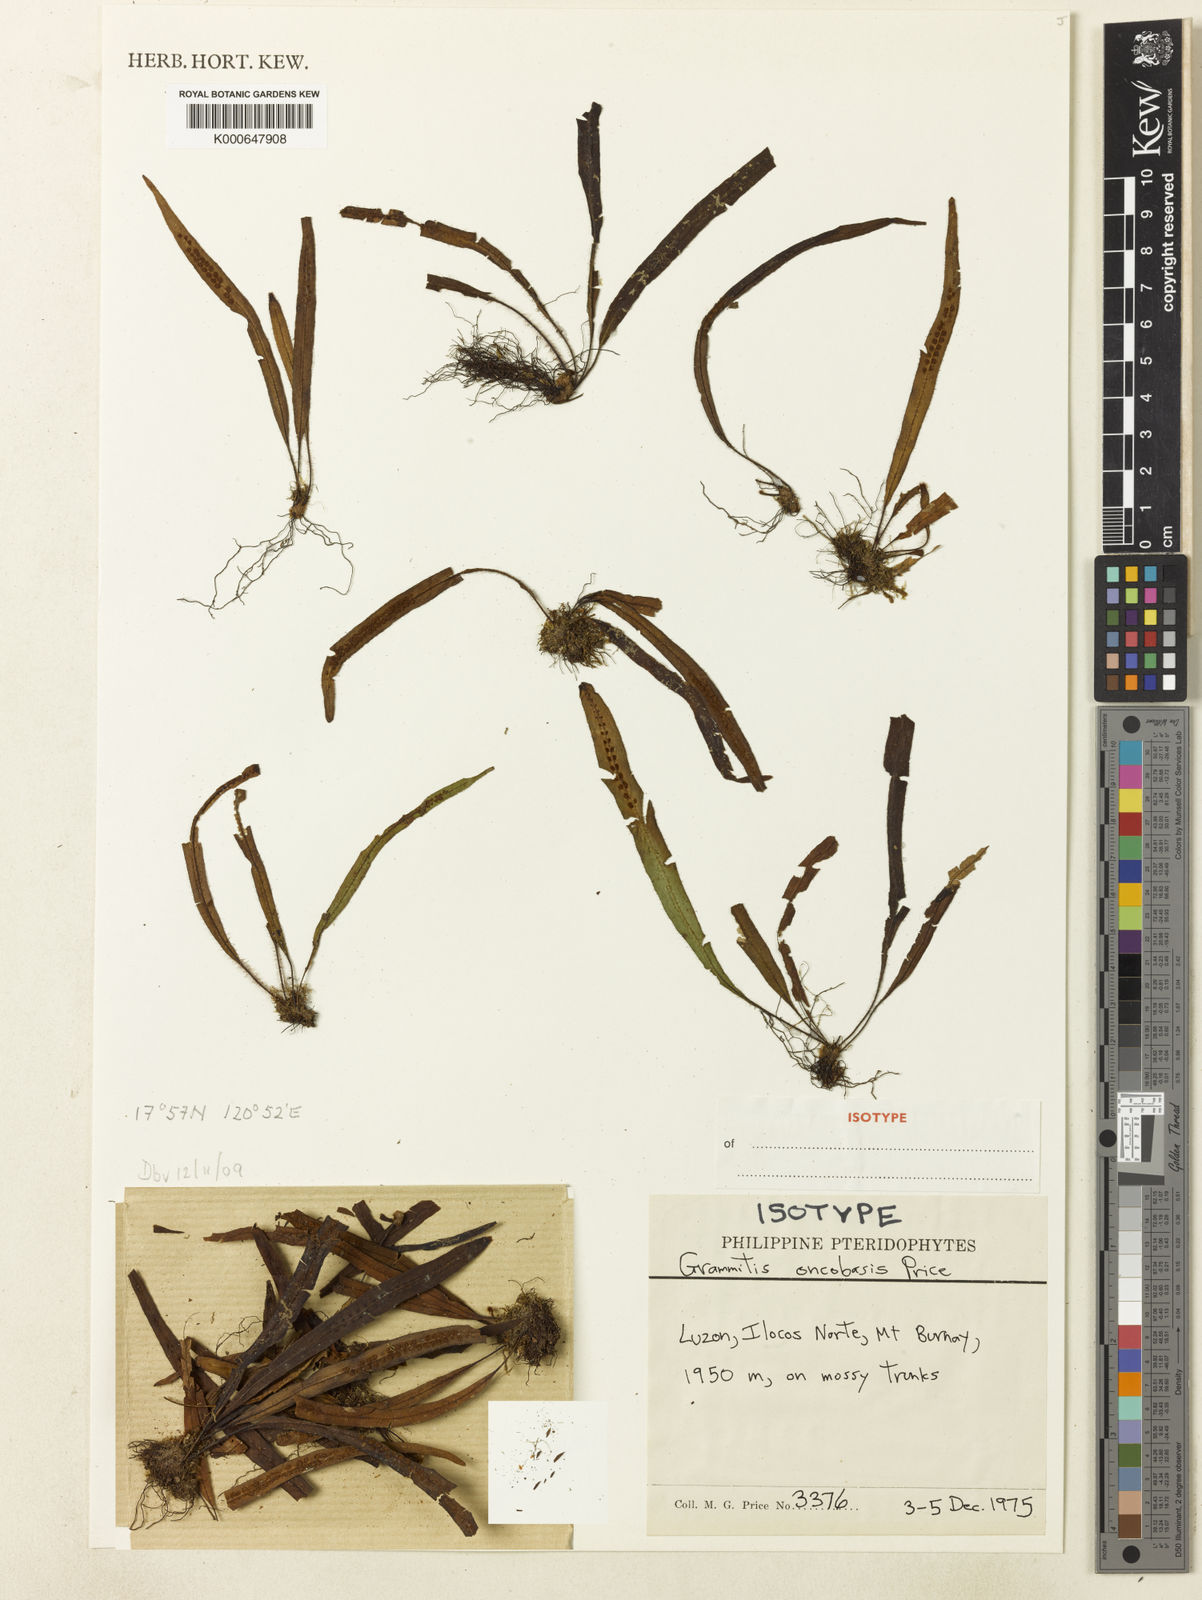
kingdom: Plantae
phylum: Tracheophyta
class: Polypodiopsida
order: Polypodiales
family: Polypodiaceae
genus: Oreogrammitis
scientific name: Oreogrammitis oncobasis
